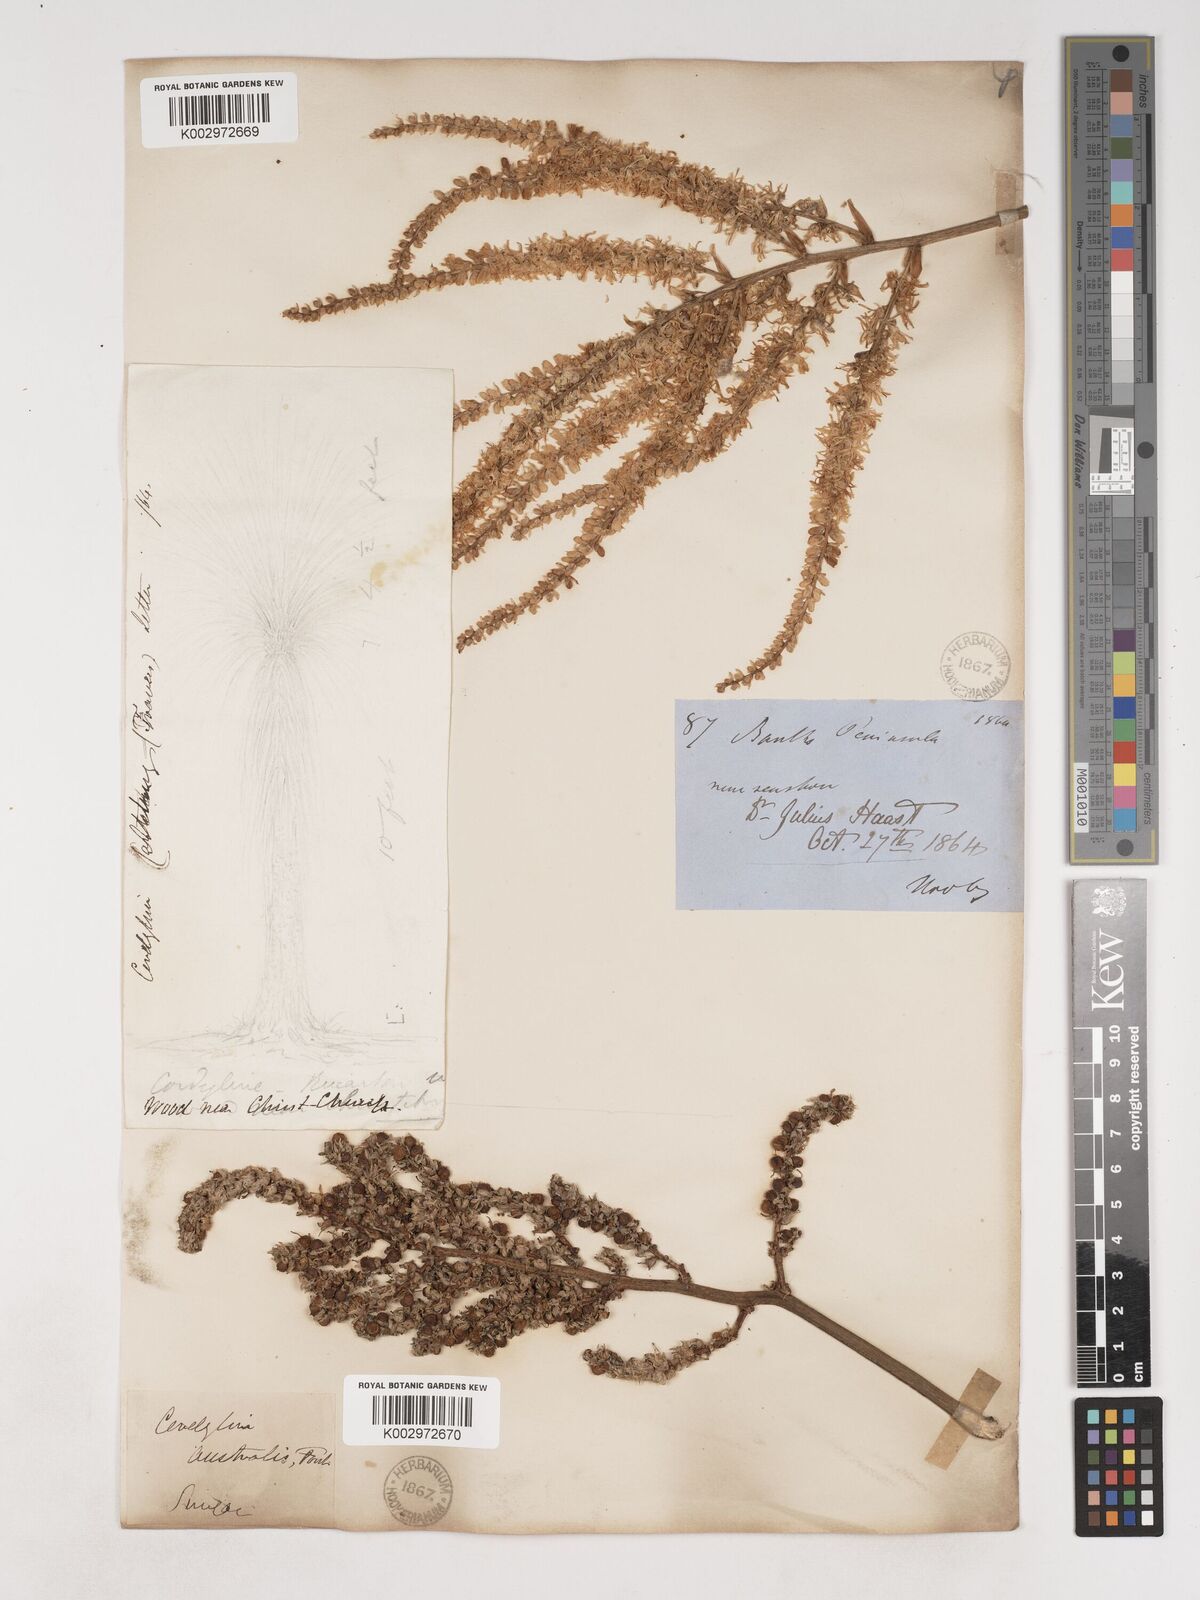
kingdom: Plantae
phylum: Tracheophyta
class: Liliopsida
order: Asparagales
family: Asparagaceae
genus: Cordyline
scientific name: Cordyline australis
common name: Cabbage-palm
